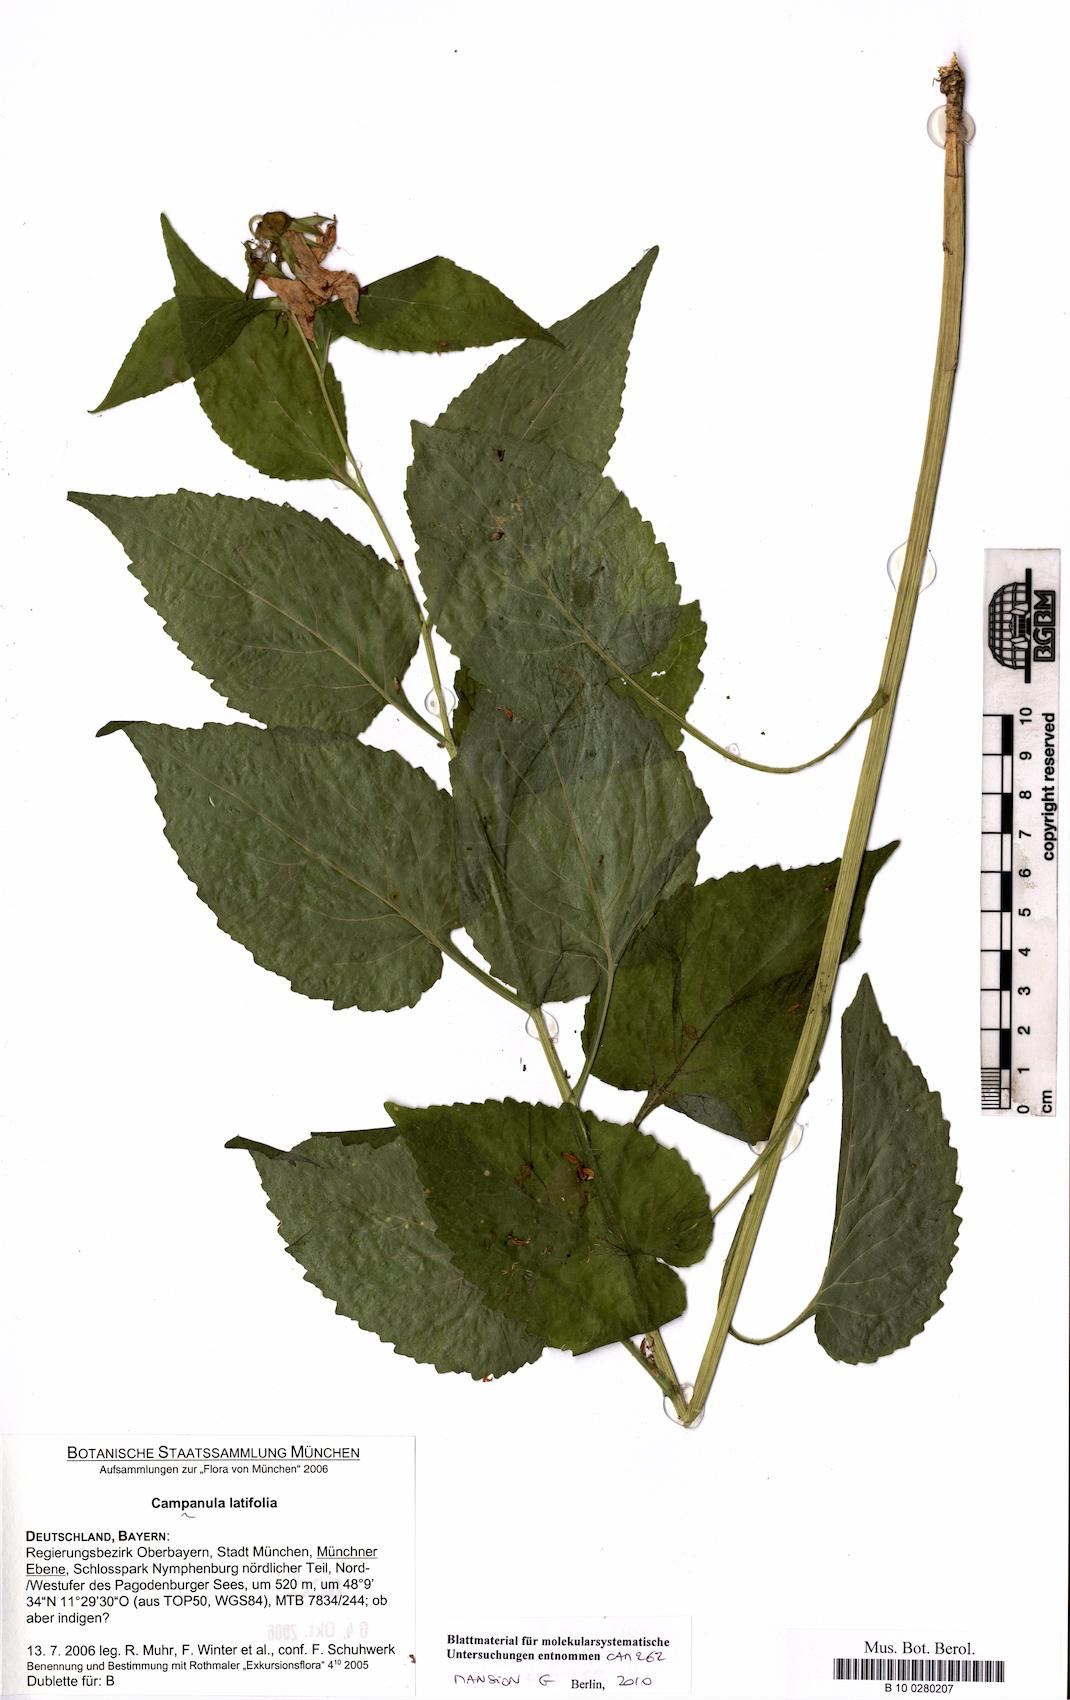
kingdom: Plantae
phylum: Tracheophyta
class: Magnoliopsida
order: Asterales
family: Campanulaceae
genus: Campanula
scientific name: Campanula latifolia
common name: Giant bellflower
